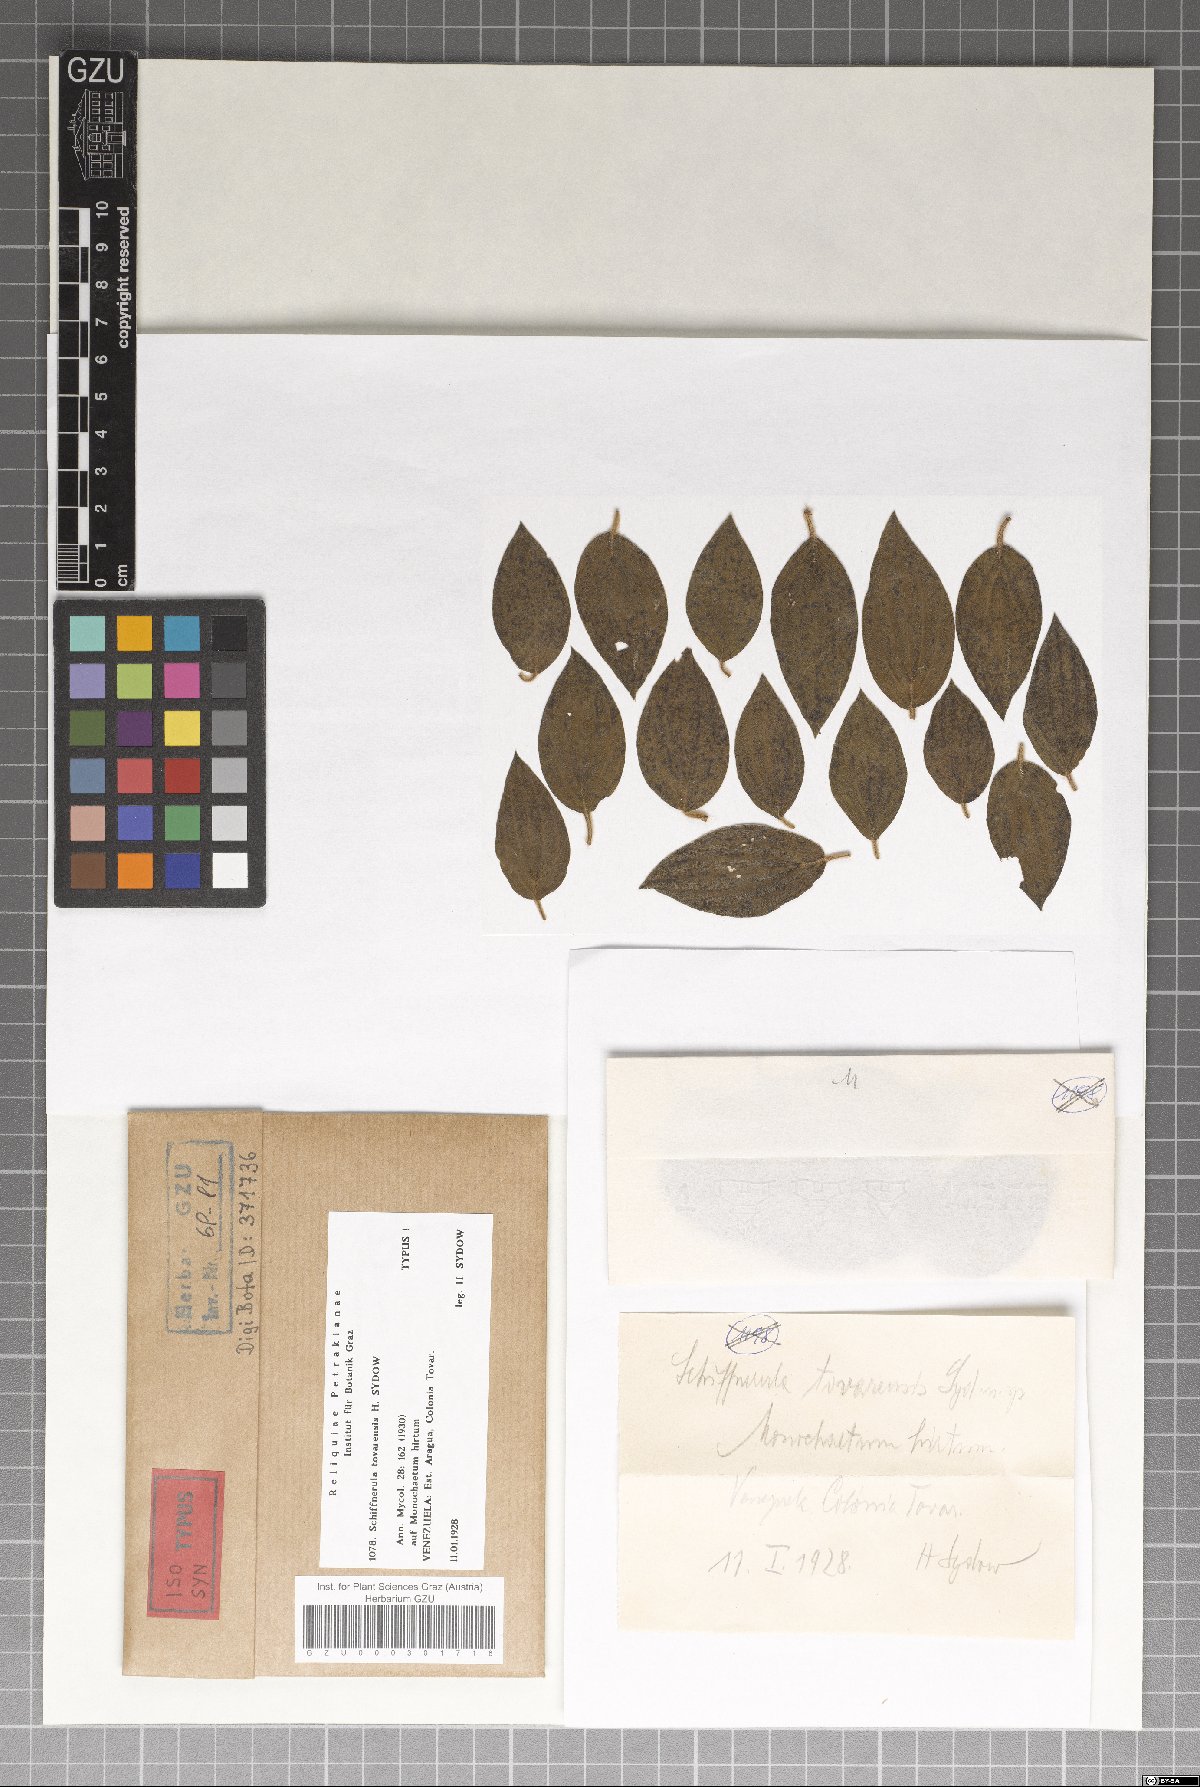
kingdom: Fungi
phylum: Ascomycota
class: Dothideomycetes
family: Englerulaceae
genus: Schiffnerula
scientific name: Schiffnerula tovarensis
